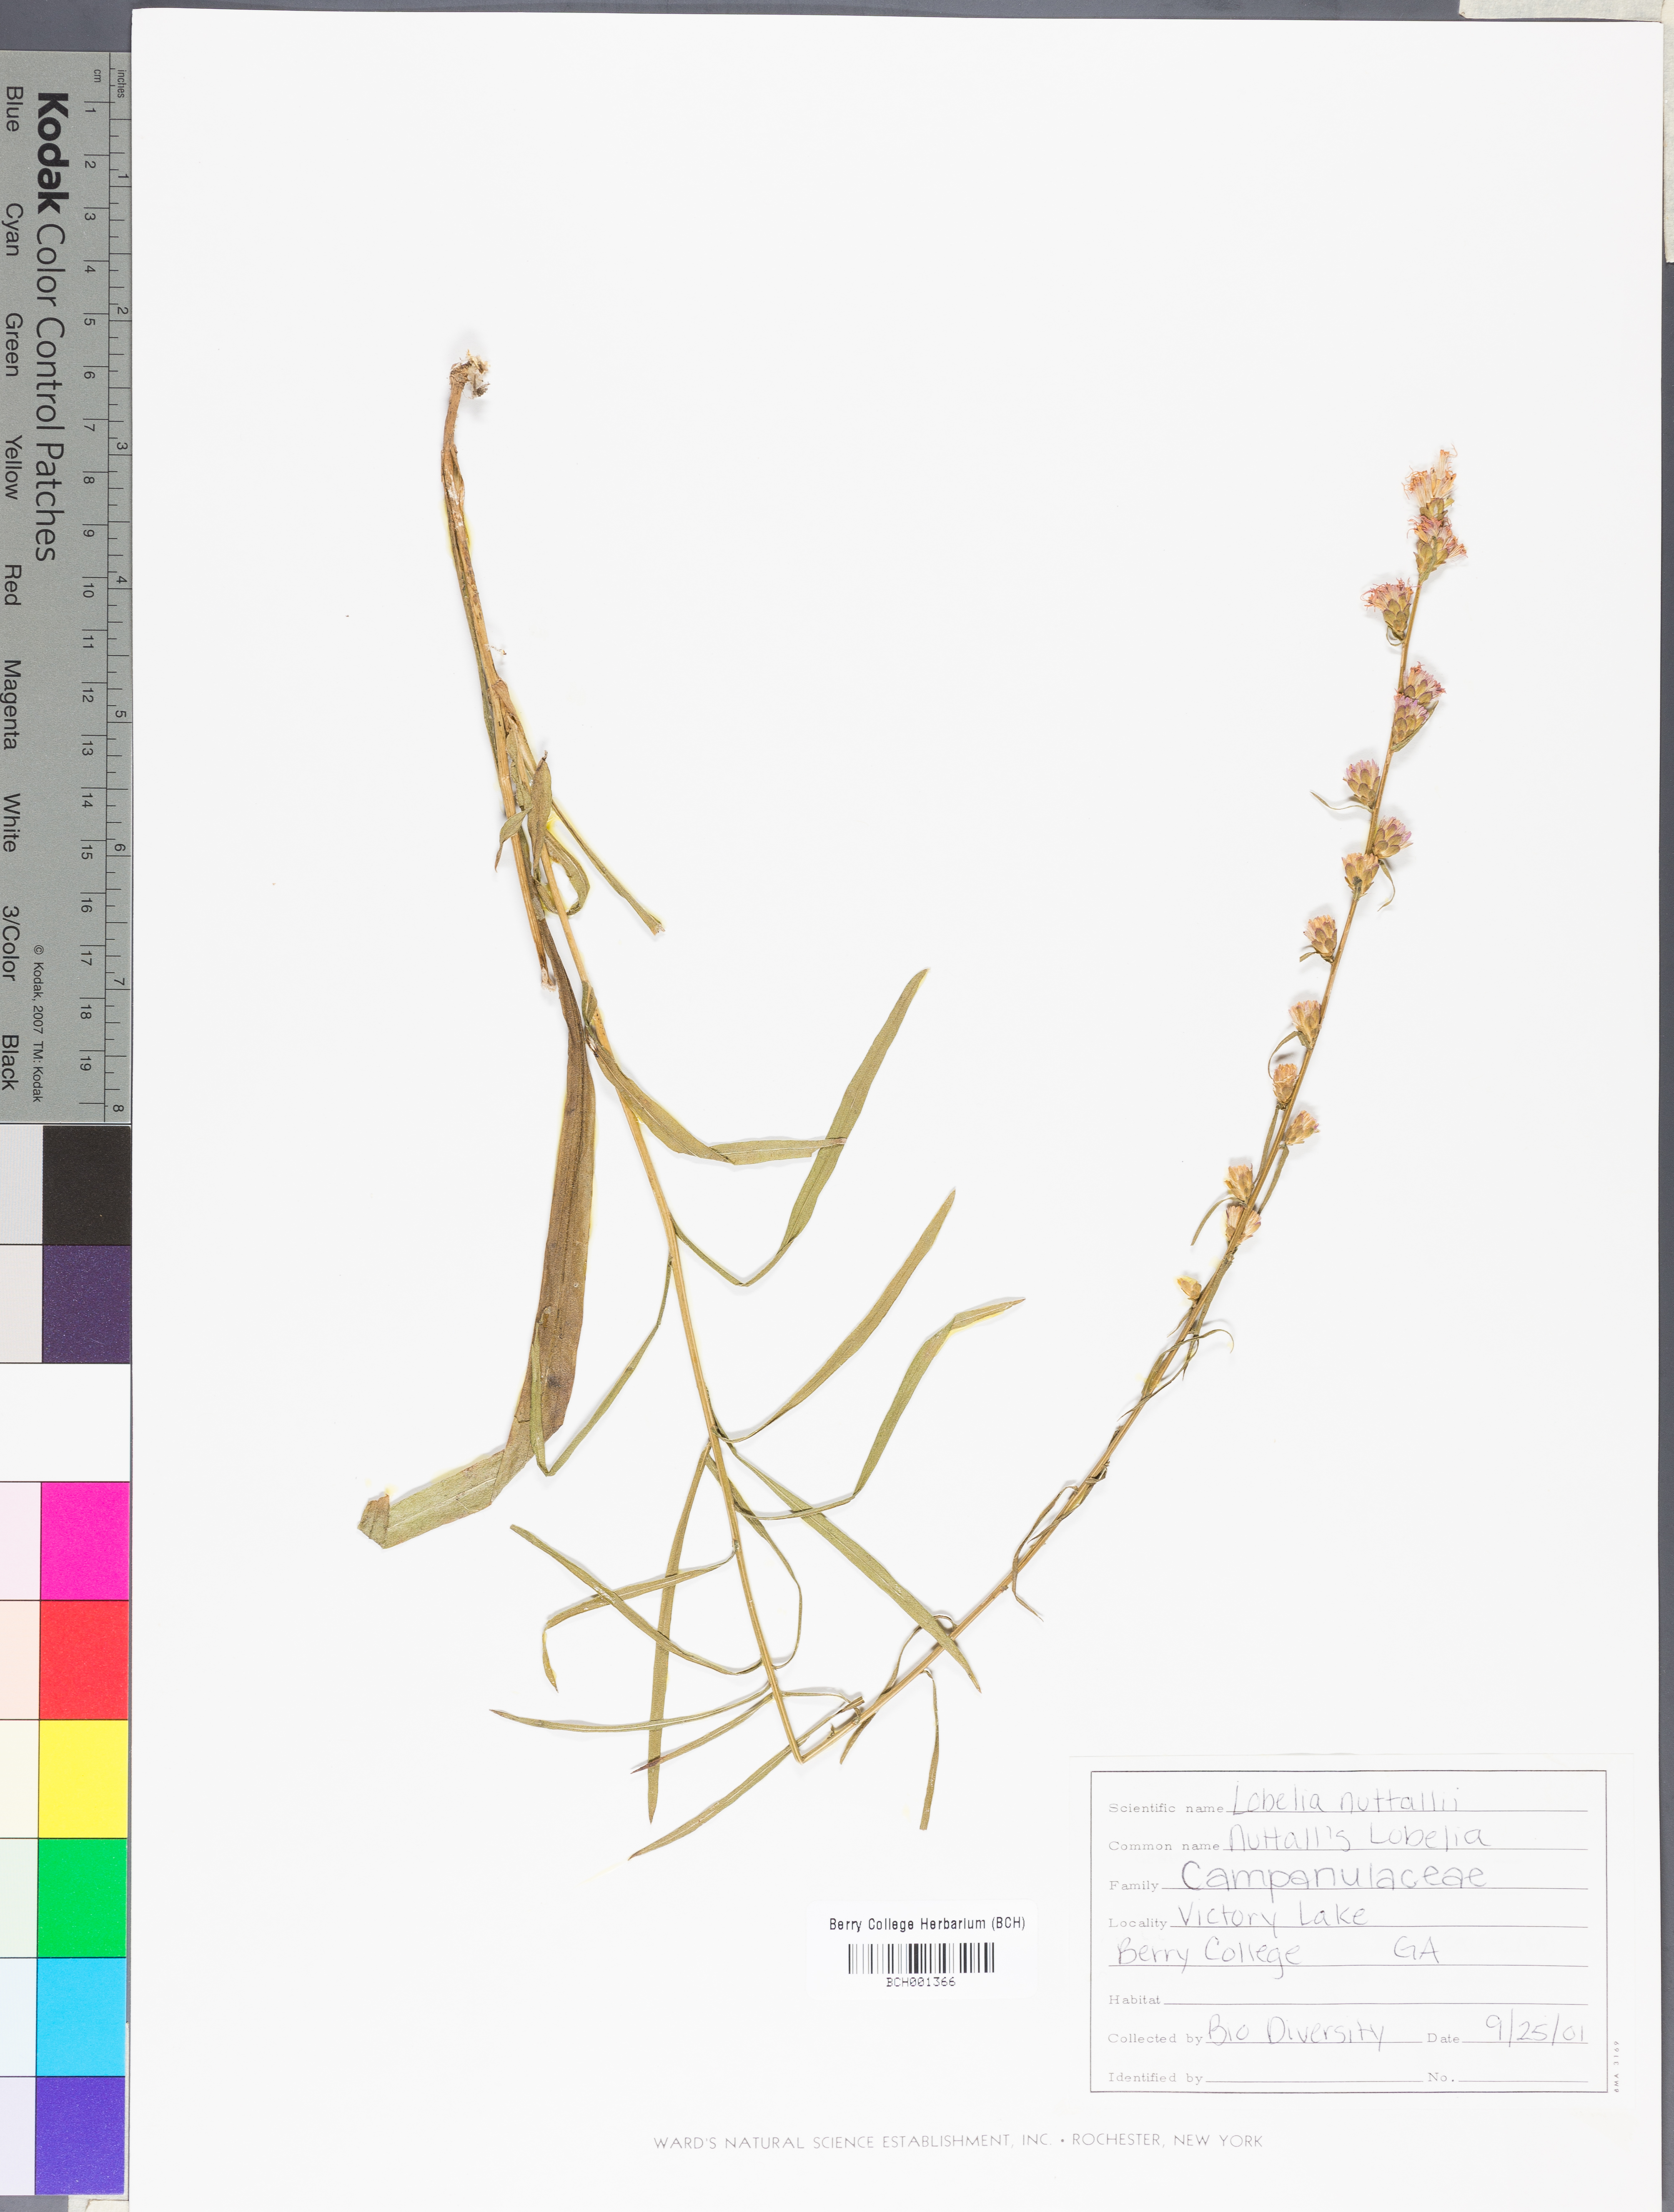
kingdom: Plantae
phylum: Tracheophyta
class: Magnoliopsida
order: Asterales
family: Campanulaceae
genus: Lobelia
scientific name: Lobelia nuttallii
